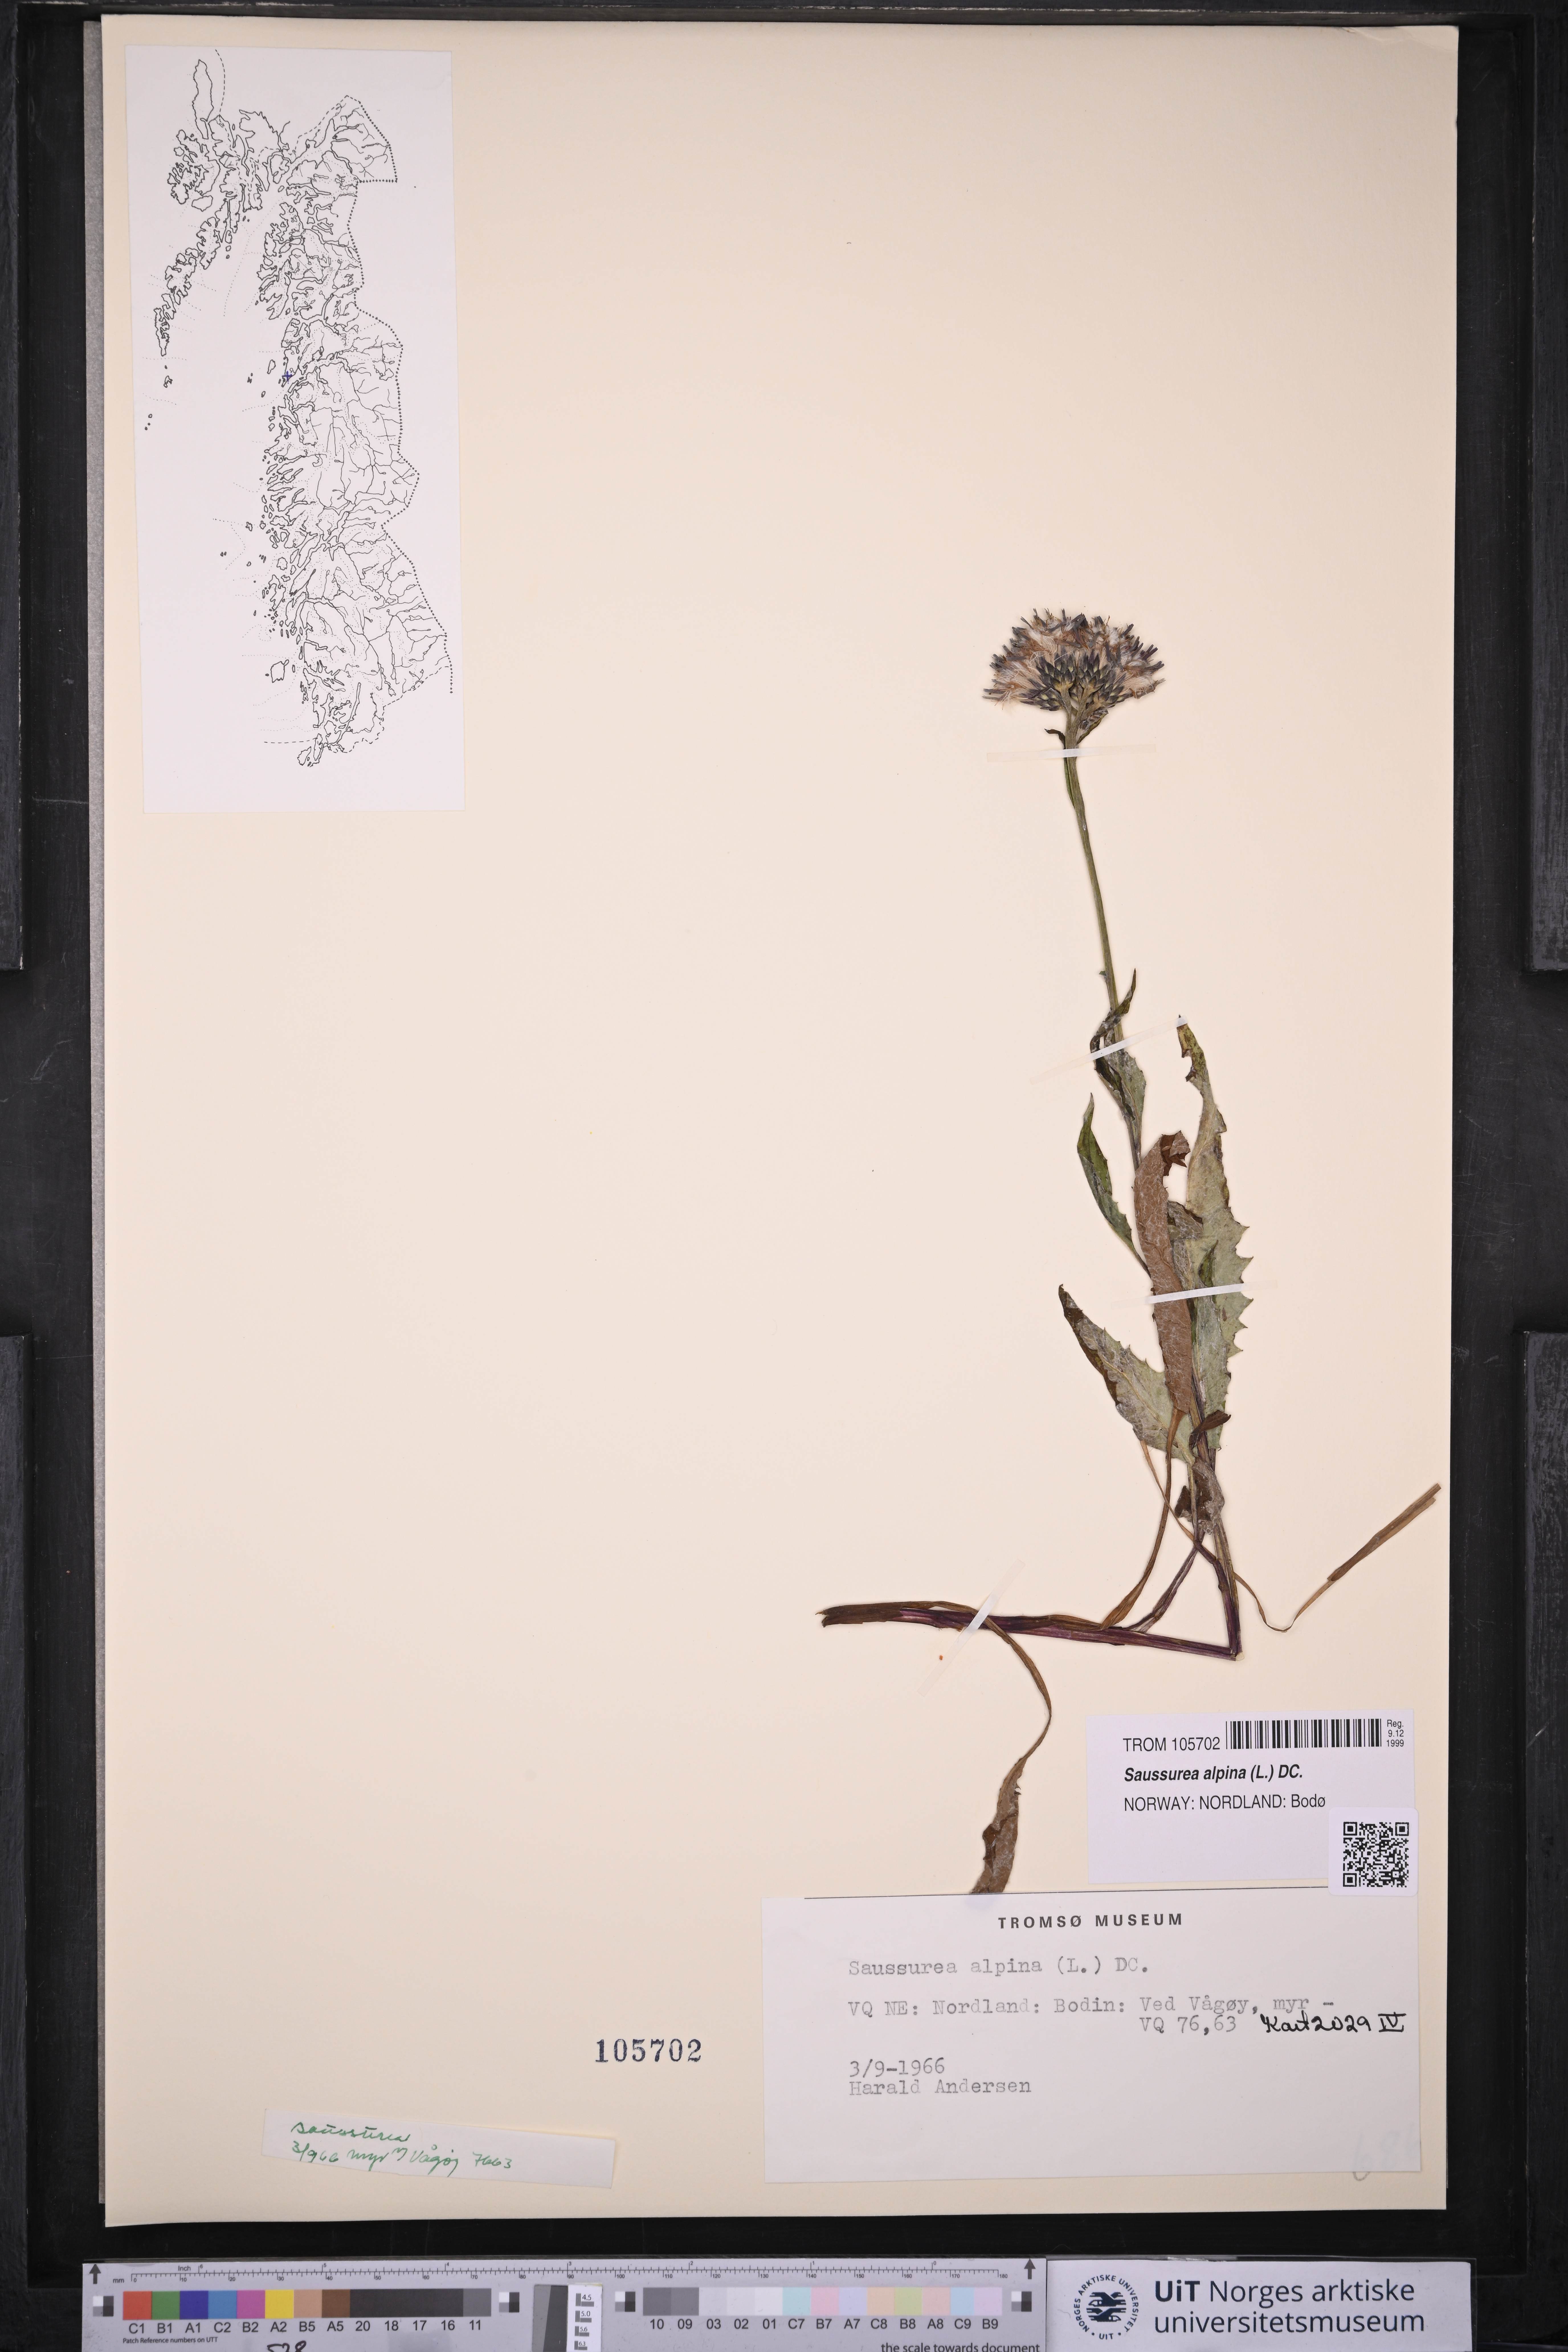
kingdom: Plantae
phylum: Tracheophyta
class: Magnoliopsida
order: Asterales
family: Asteraceae
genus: Saussurea
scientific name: Saussurea alpina
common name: Alpine saw-wort
